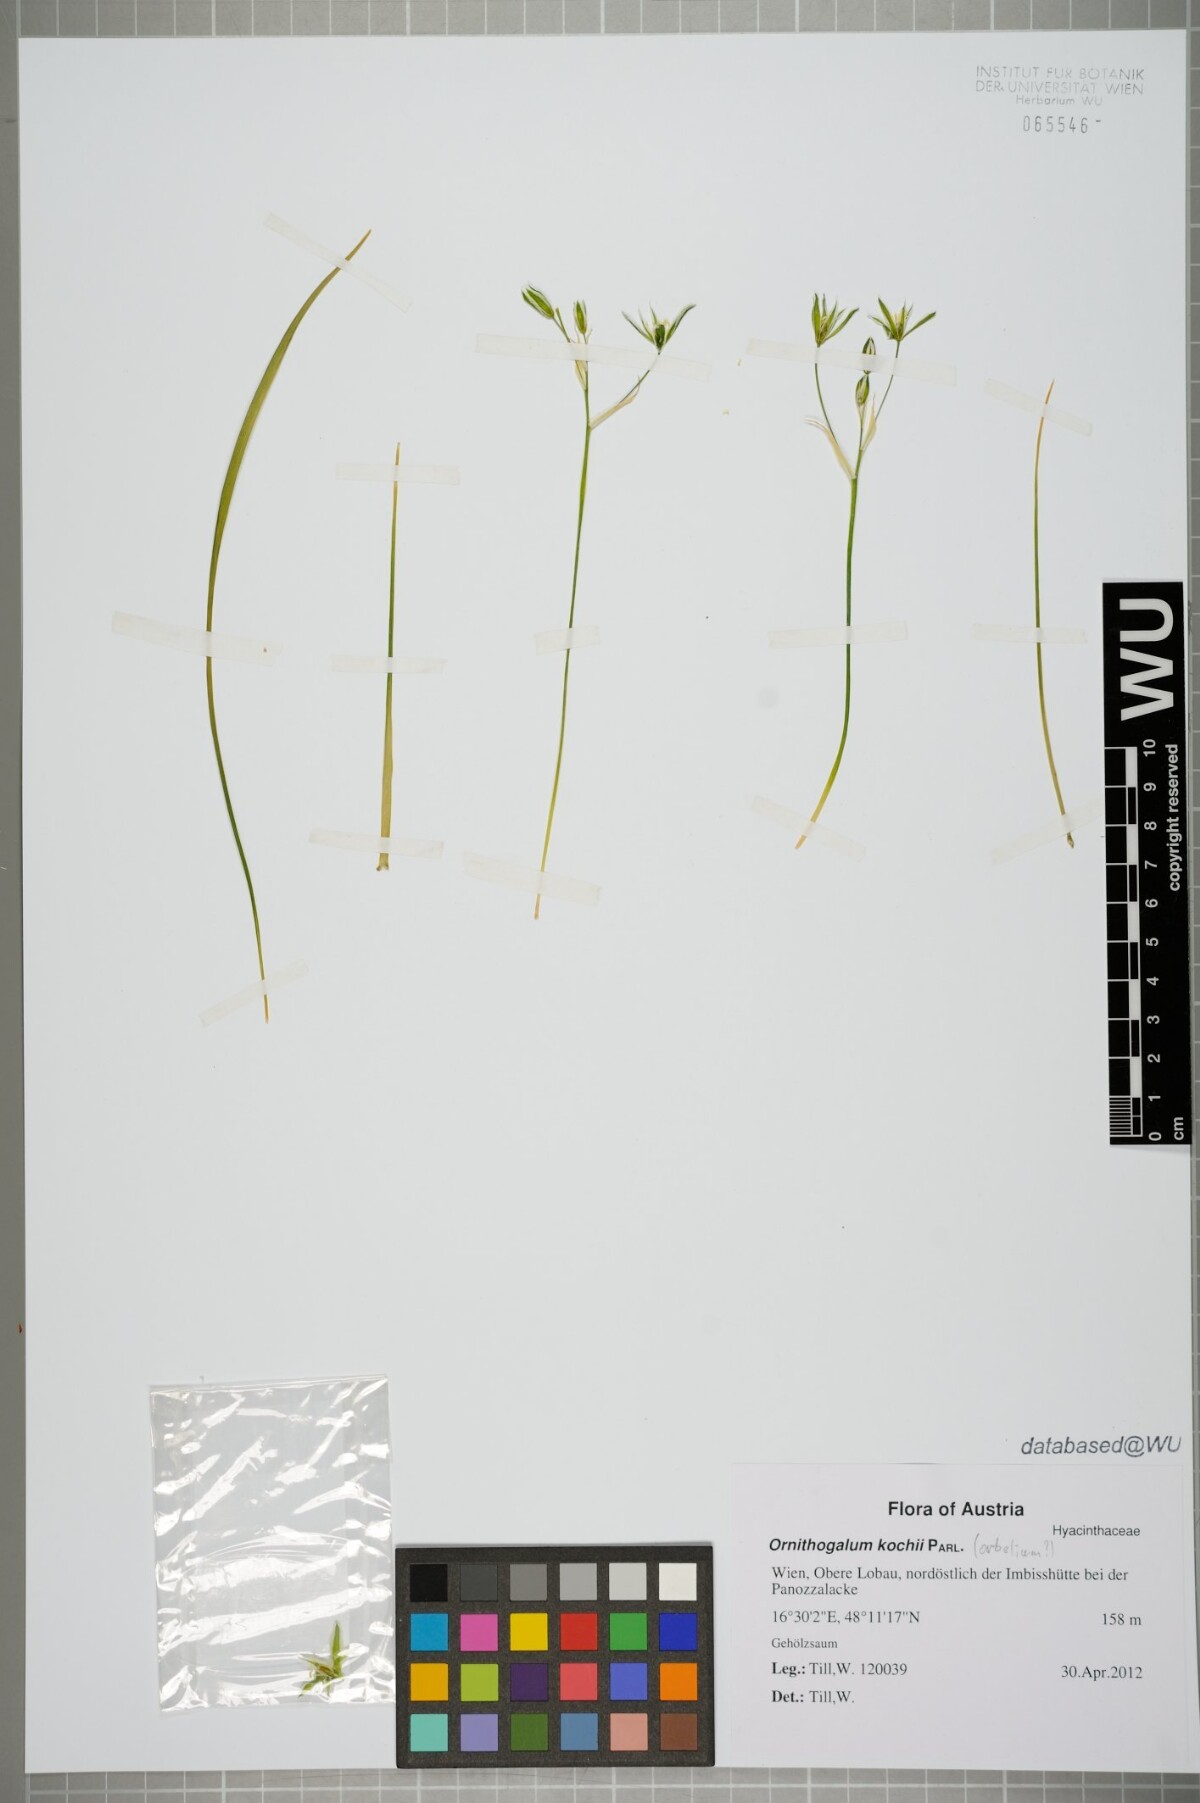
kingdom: Plantae
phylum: Tracheophyta
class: Liliopsida
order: Asparagales
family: Asparagaceae
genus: Ornithogalum
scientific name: Ornithogalum orthophyllum
